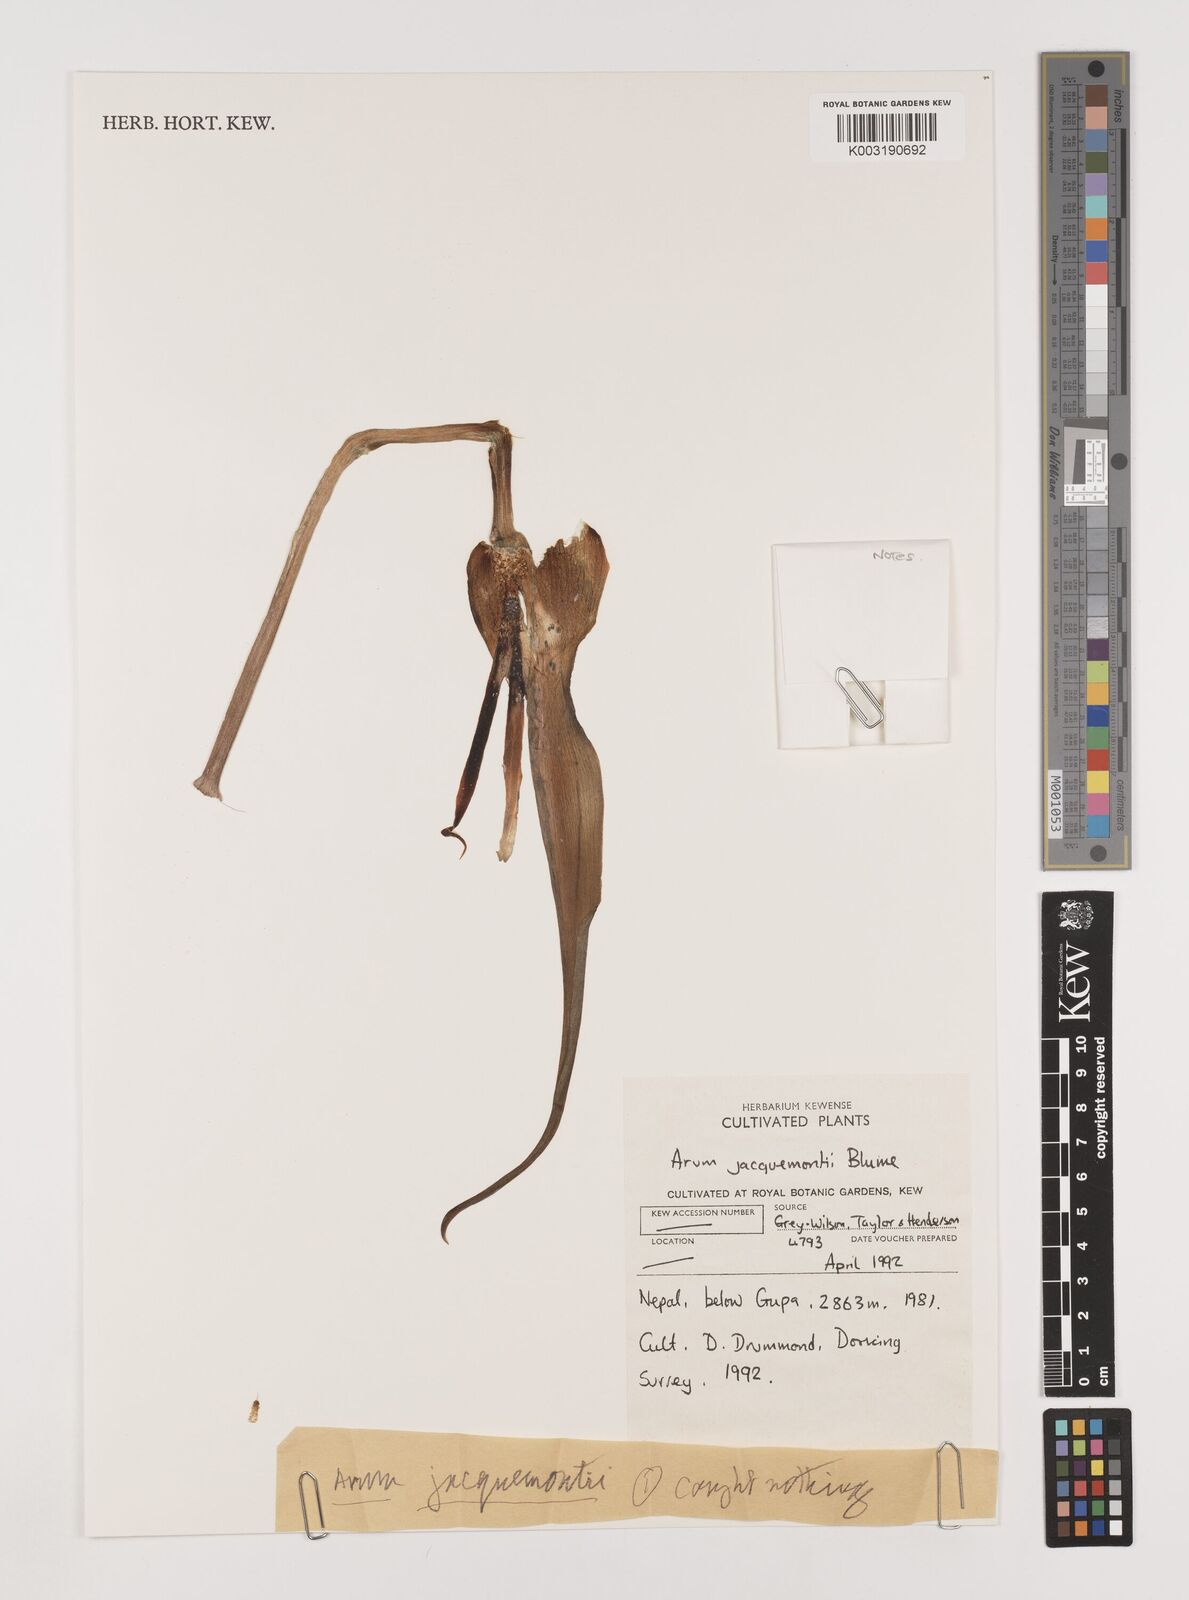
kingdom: Plantae
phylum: Tracheophyta
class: Liliopsida
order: Alismatales
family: Araceae
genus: Arum
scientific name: Arum jacquemontii
